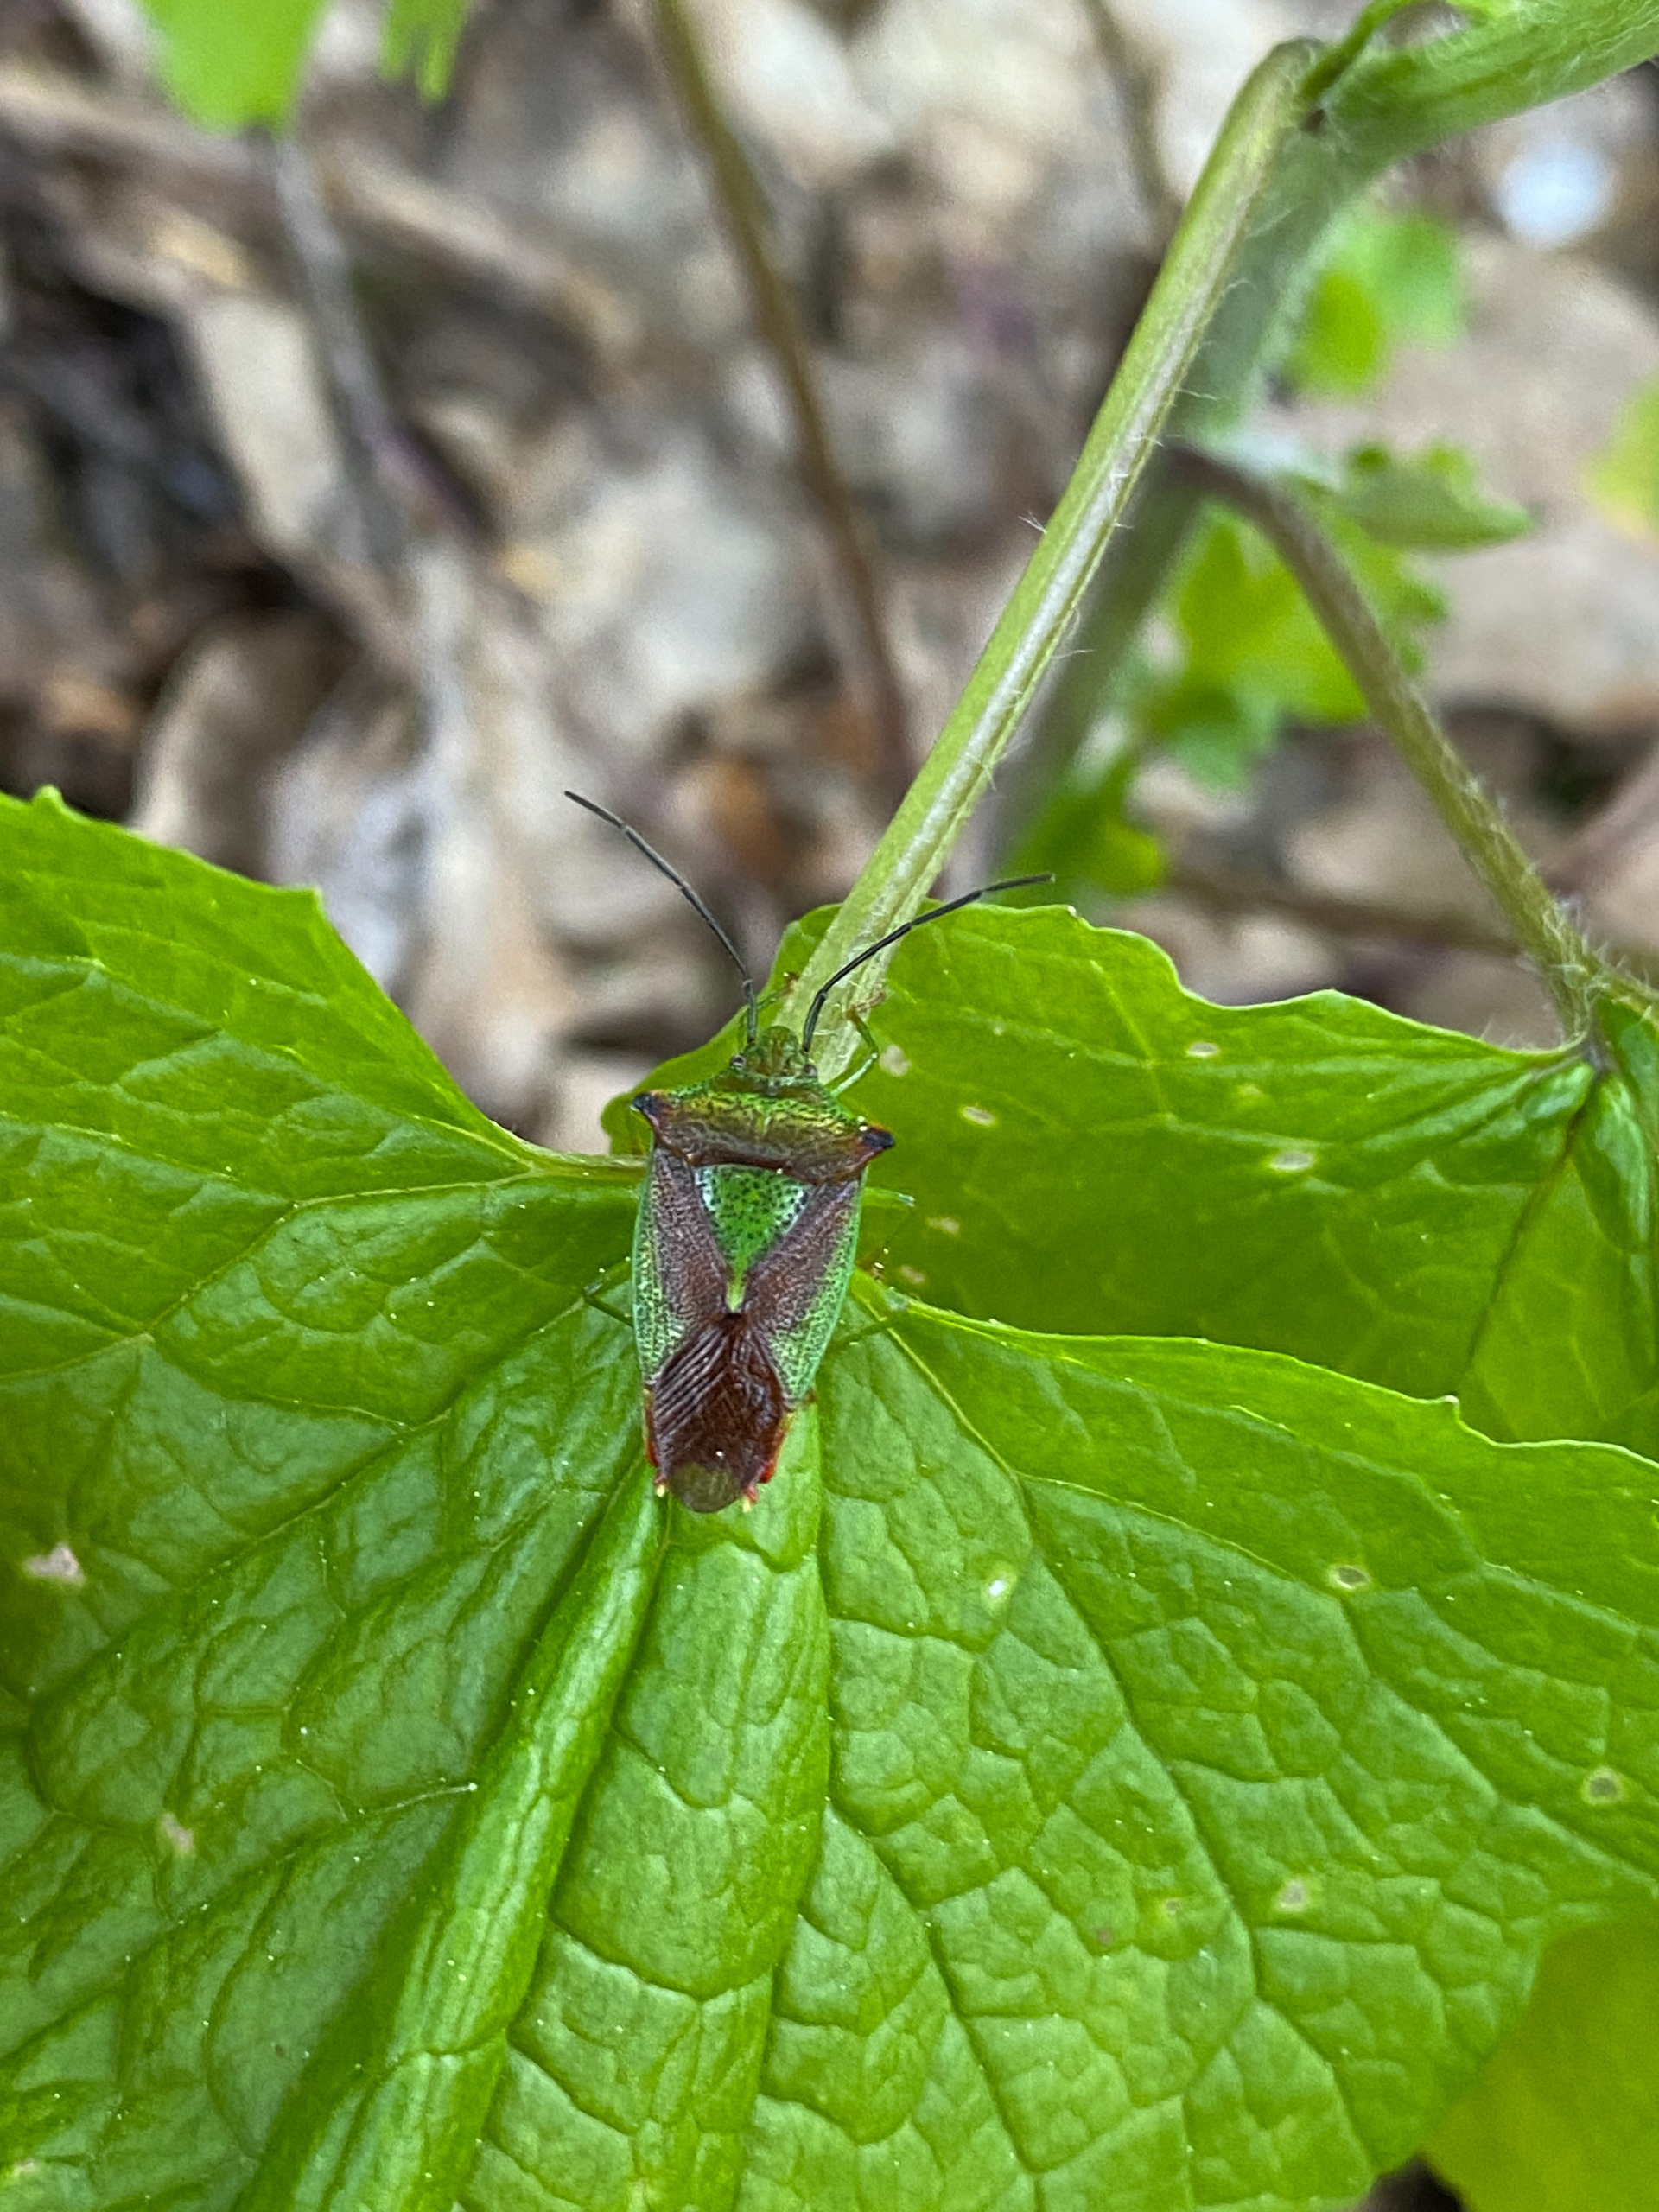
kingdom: Animalia
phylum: Arthropoda
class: Insecta
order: Hemiptera
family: Acanthosomatidae
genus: Acanthosoma
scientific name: Acanthosoma haemorrhoidale
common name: Stor løvtæge
